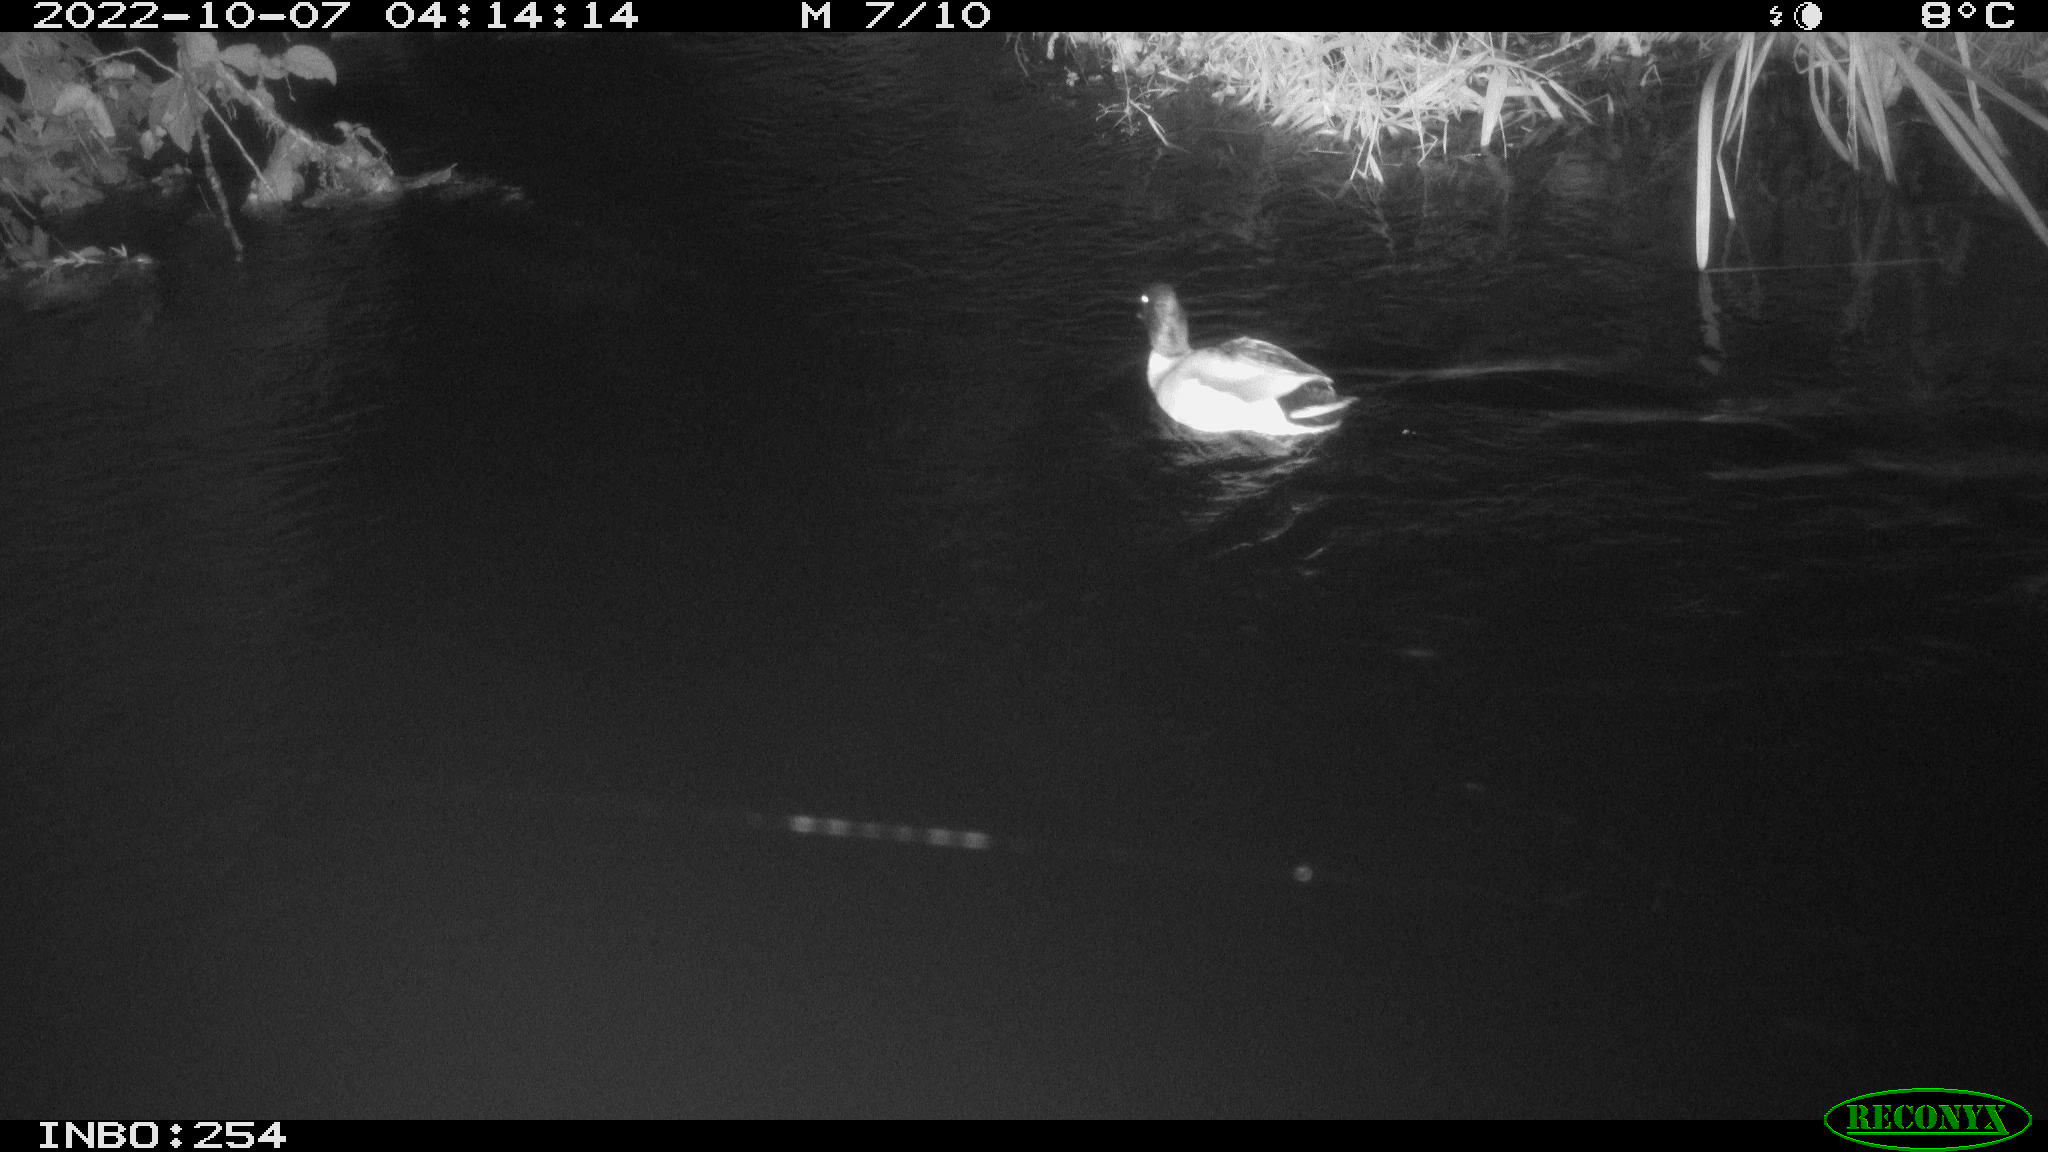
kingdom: Animalia
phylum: Chordata
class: Aves
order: Anseriformes
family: Anatidae
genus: Anas
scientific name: Anas
